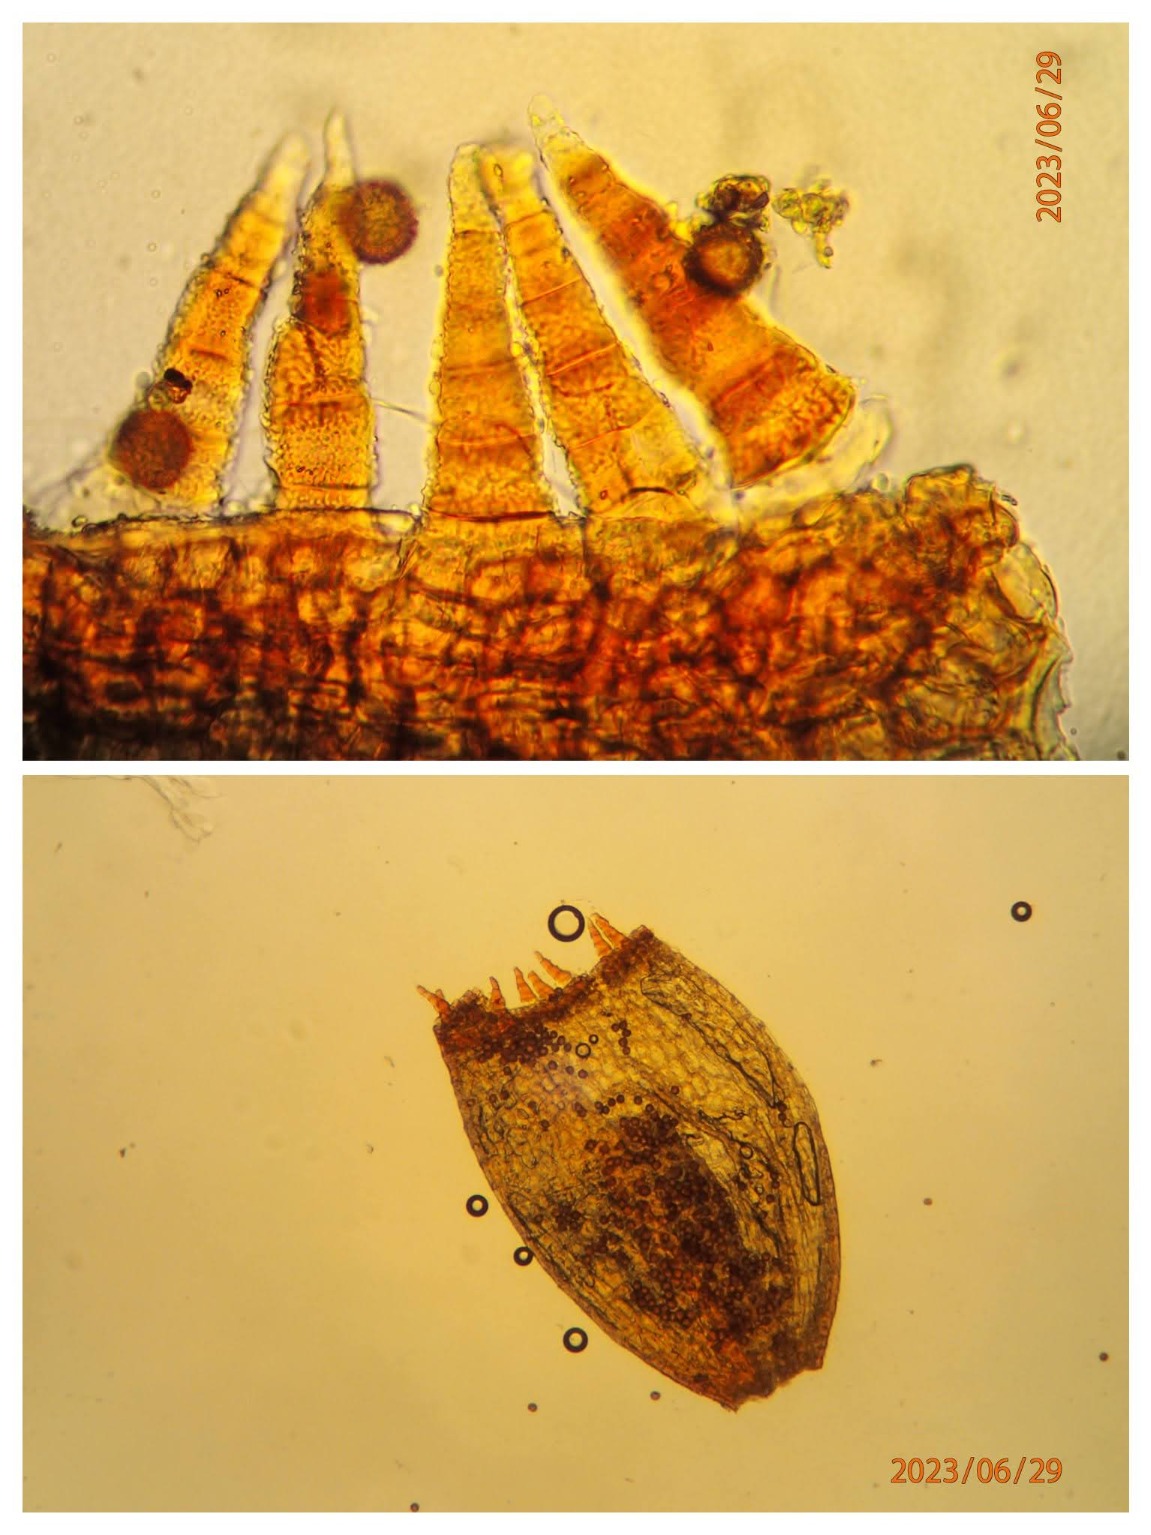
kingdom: Plantae
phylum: Bryophyta
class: Bryopsida
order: Pottiales
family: Pottiaceae
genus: Weissia
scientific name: Weissia controversa
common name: Smaltandet krusmos
